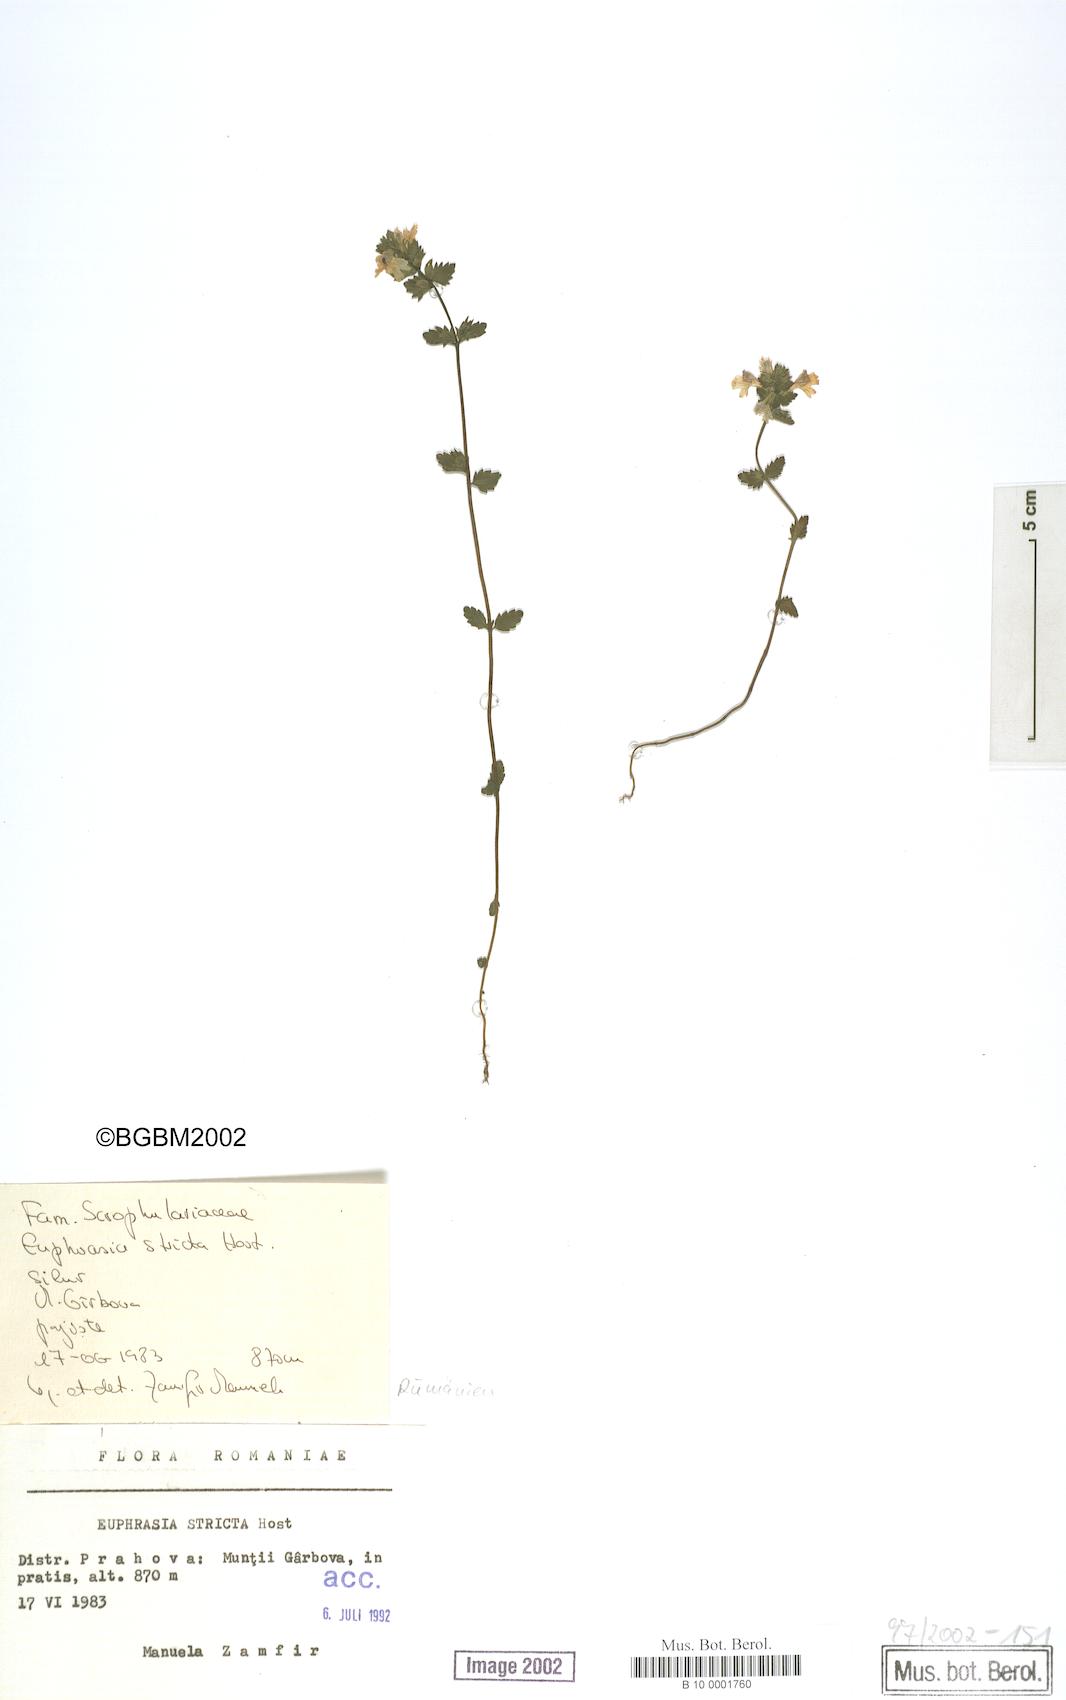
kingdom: Plantae
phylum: Tracheophyta
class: Magnoliopsida
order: Lamiales
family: Orobanchaceae
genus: Euphrasia
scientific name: Euphrasia stricta
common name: Drug eyebright
